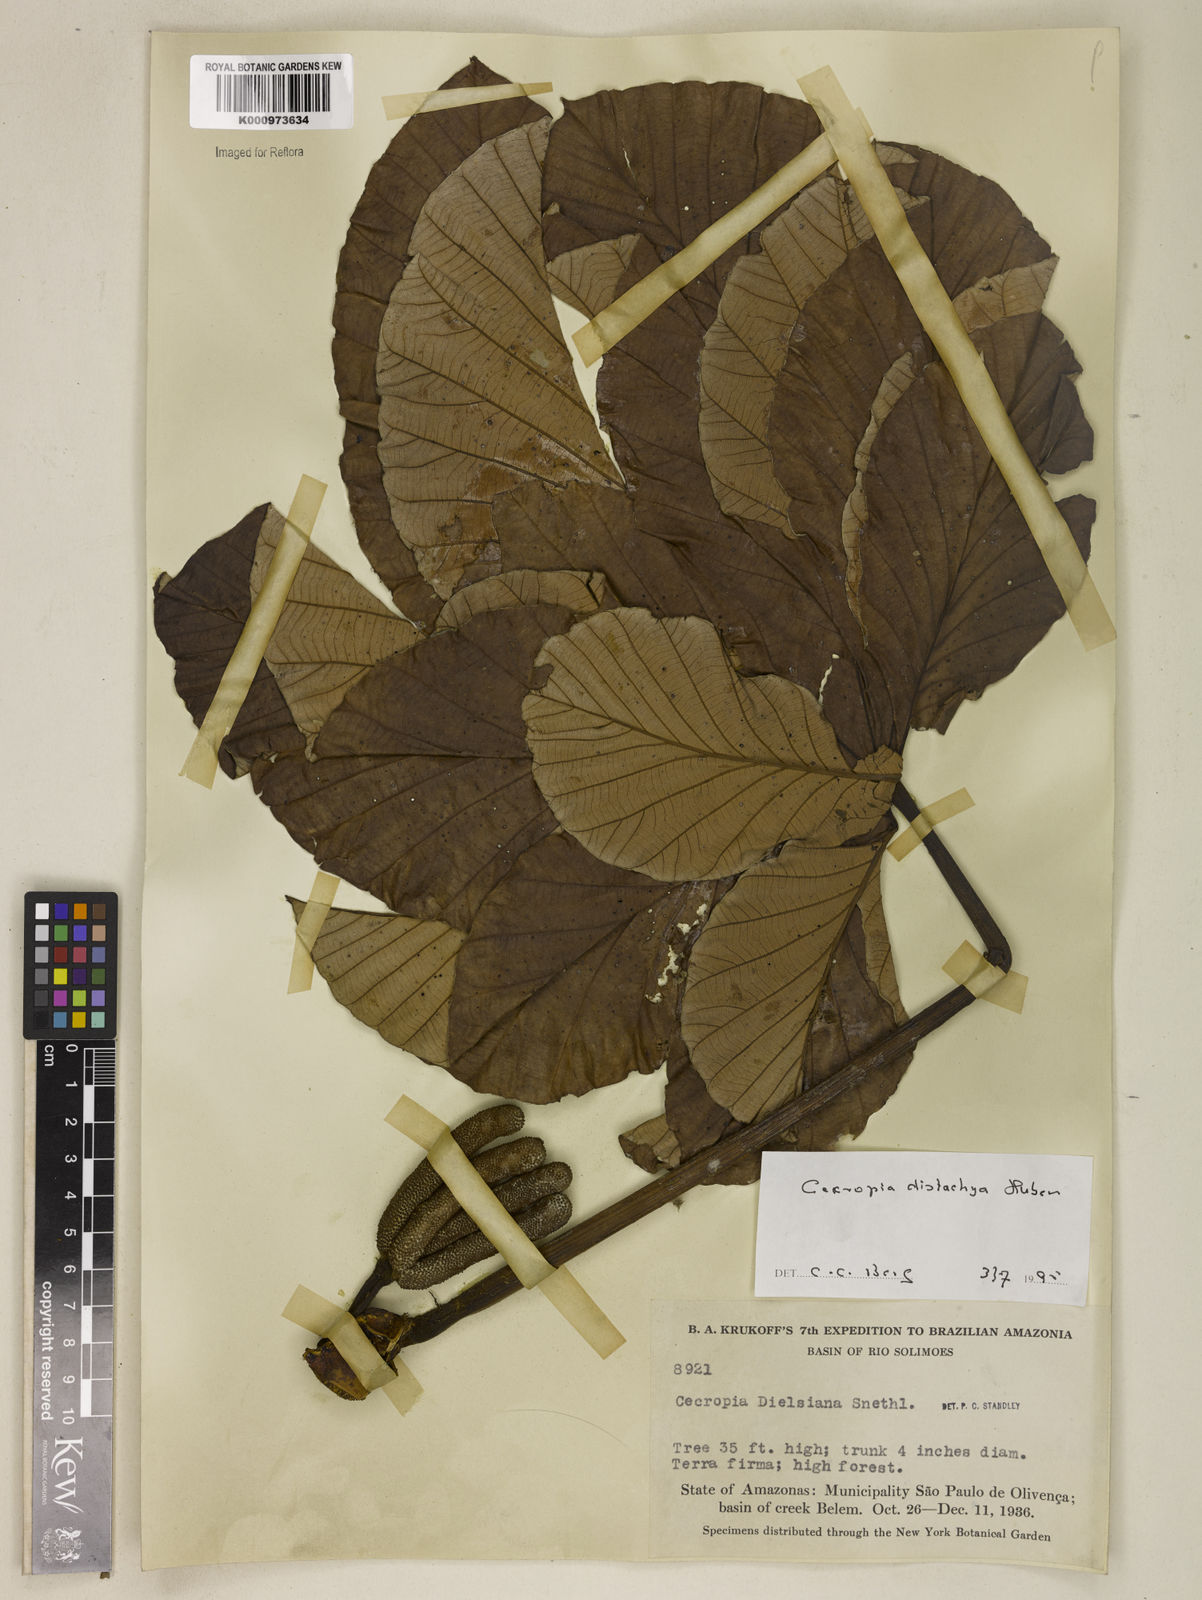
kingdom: Plantae
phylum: Tracheophyta
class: Magnoliopsida
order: Rosales
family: Urticaceae
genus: Cecropia
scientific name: Cecropia distachya
